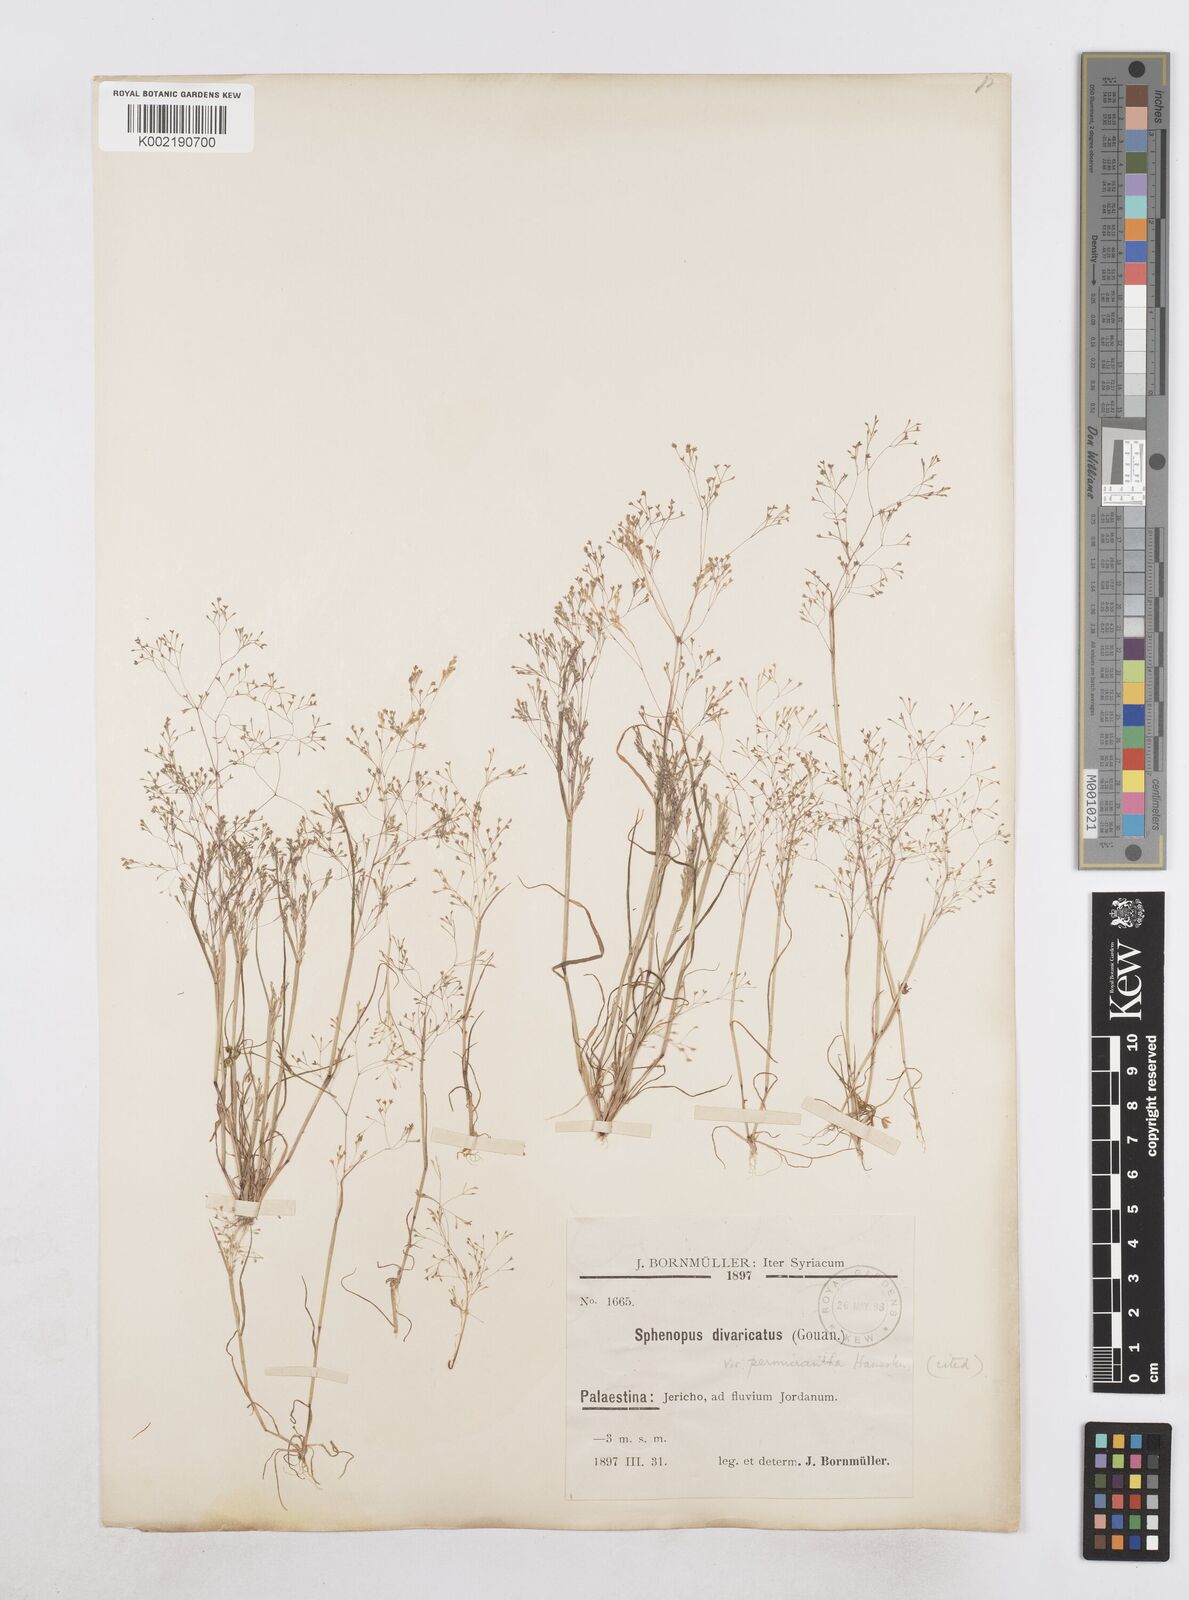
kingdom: Plantae
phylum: Tracheophyta
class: Liliopsida
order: Poales
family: Poaceae
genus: Sphenopus
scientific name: Sphenopus divaricatus
